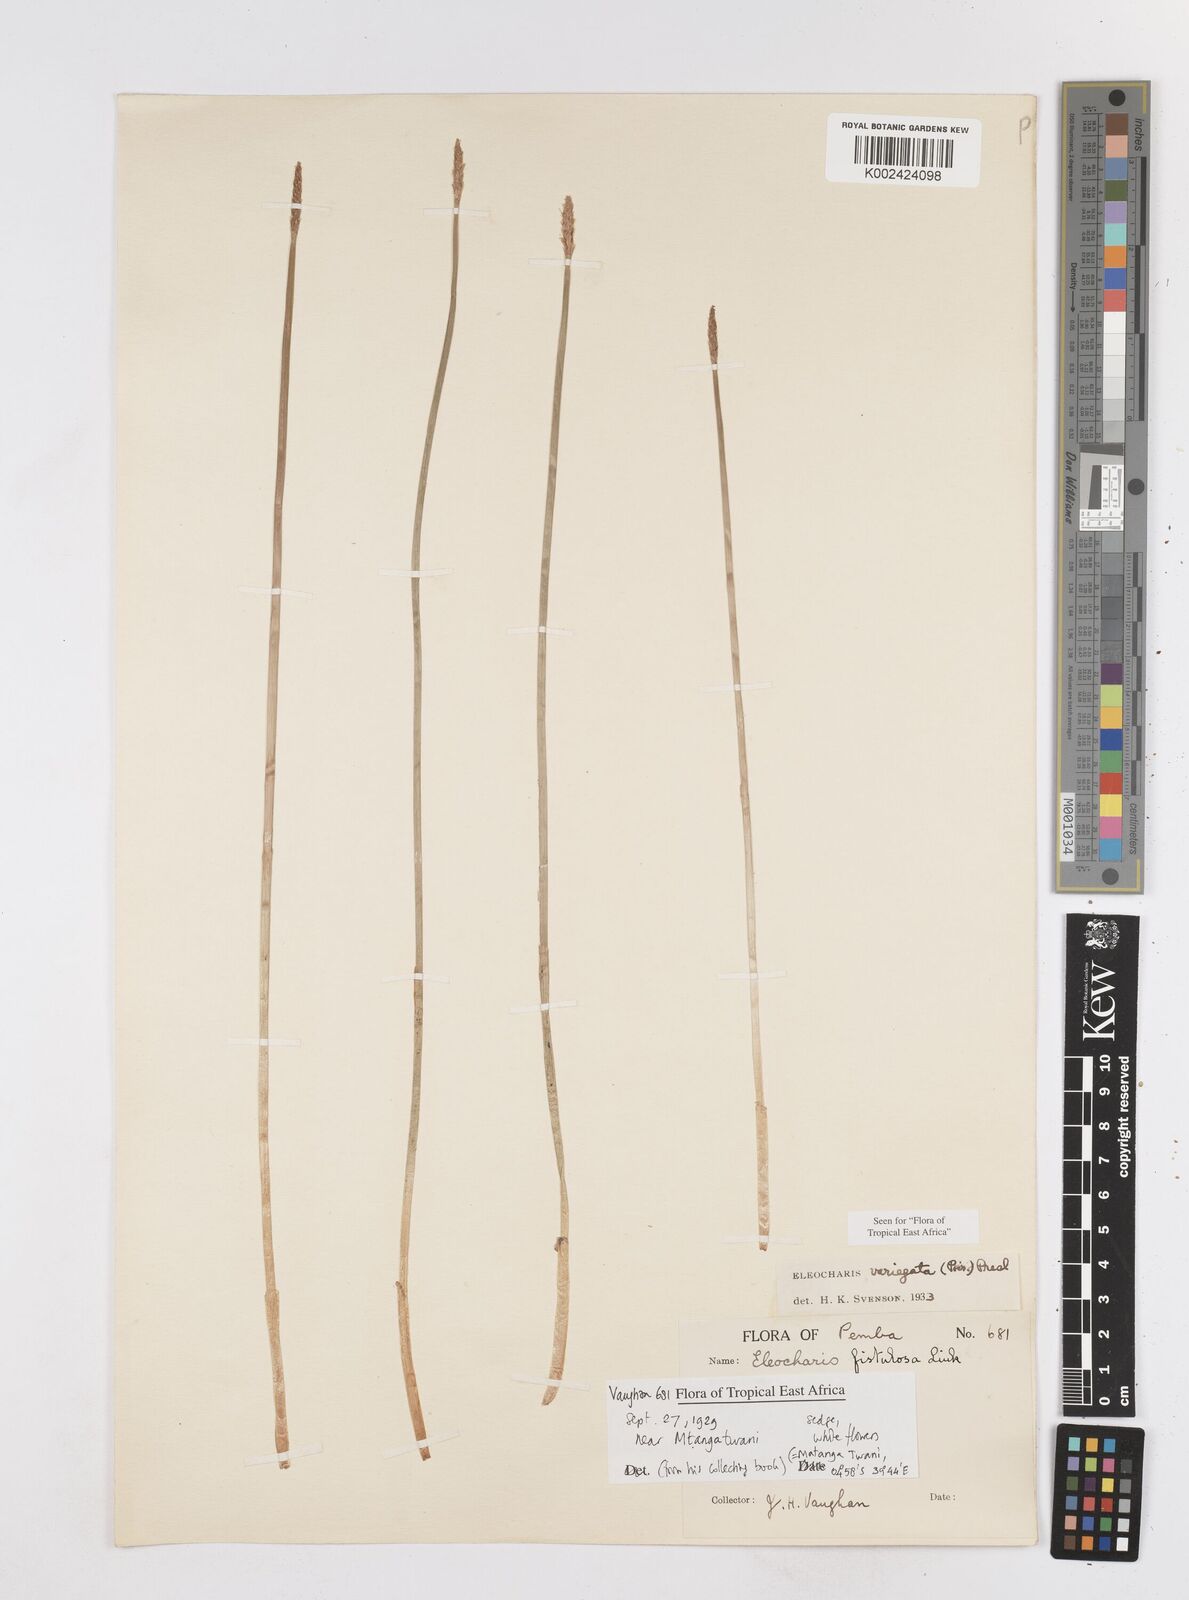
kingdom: Plantae
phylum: Tracheophyta
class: Liliopsida
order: Poales
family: Cyperaceae
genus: Eleocharis
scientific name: Eleocharis variegata
